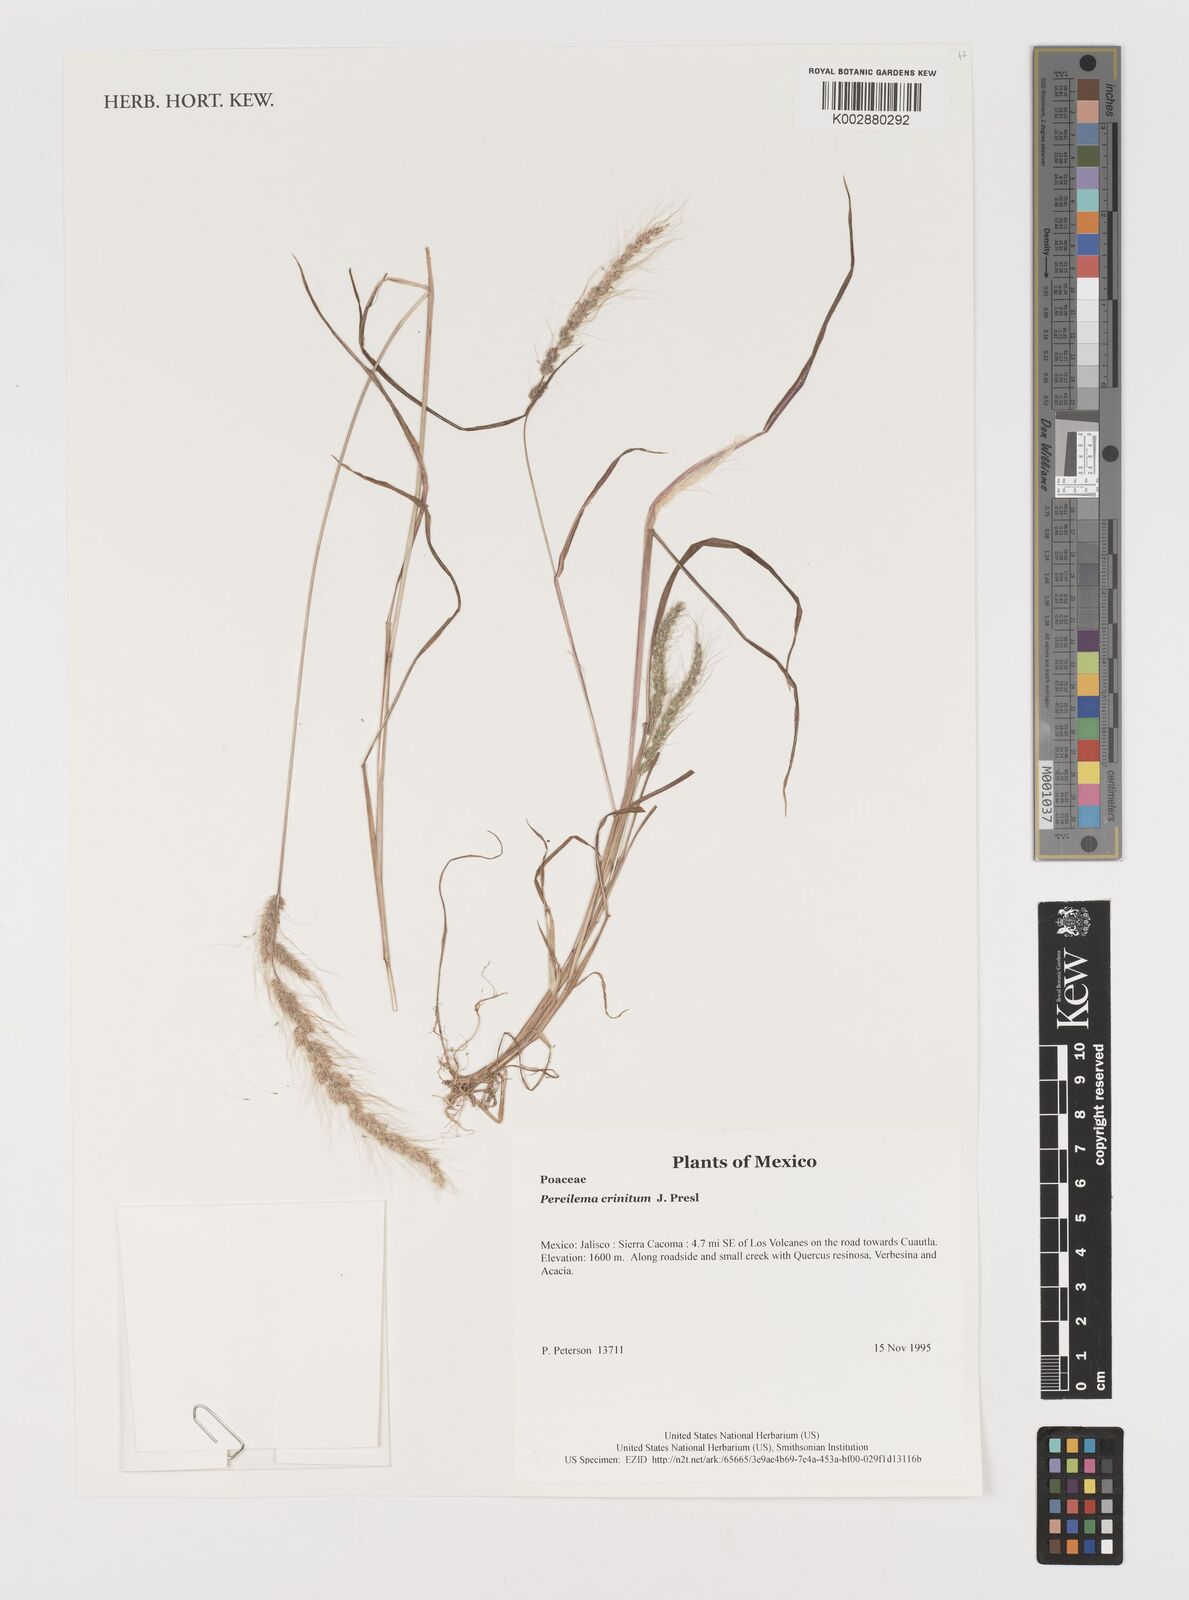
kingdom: Plantae
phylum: Tracheophyta
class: Liliopsida
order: Poales
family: Poaceae
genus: Muhlenbergia
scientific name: Muhlenbergia pereilema
